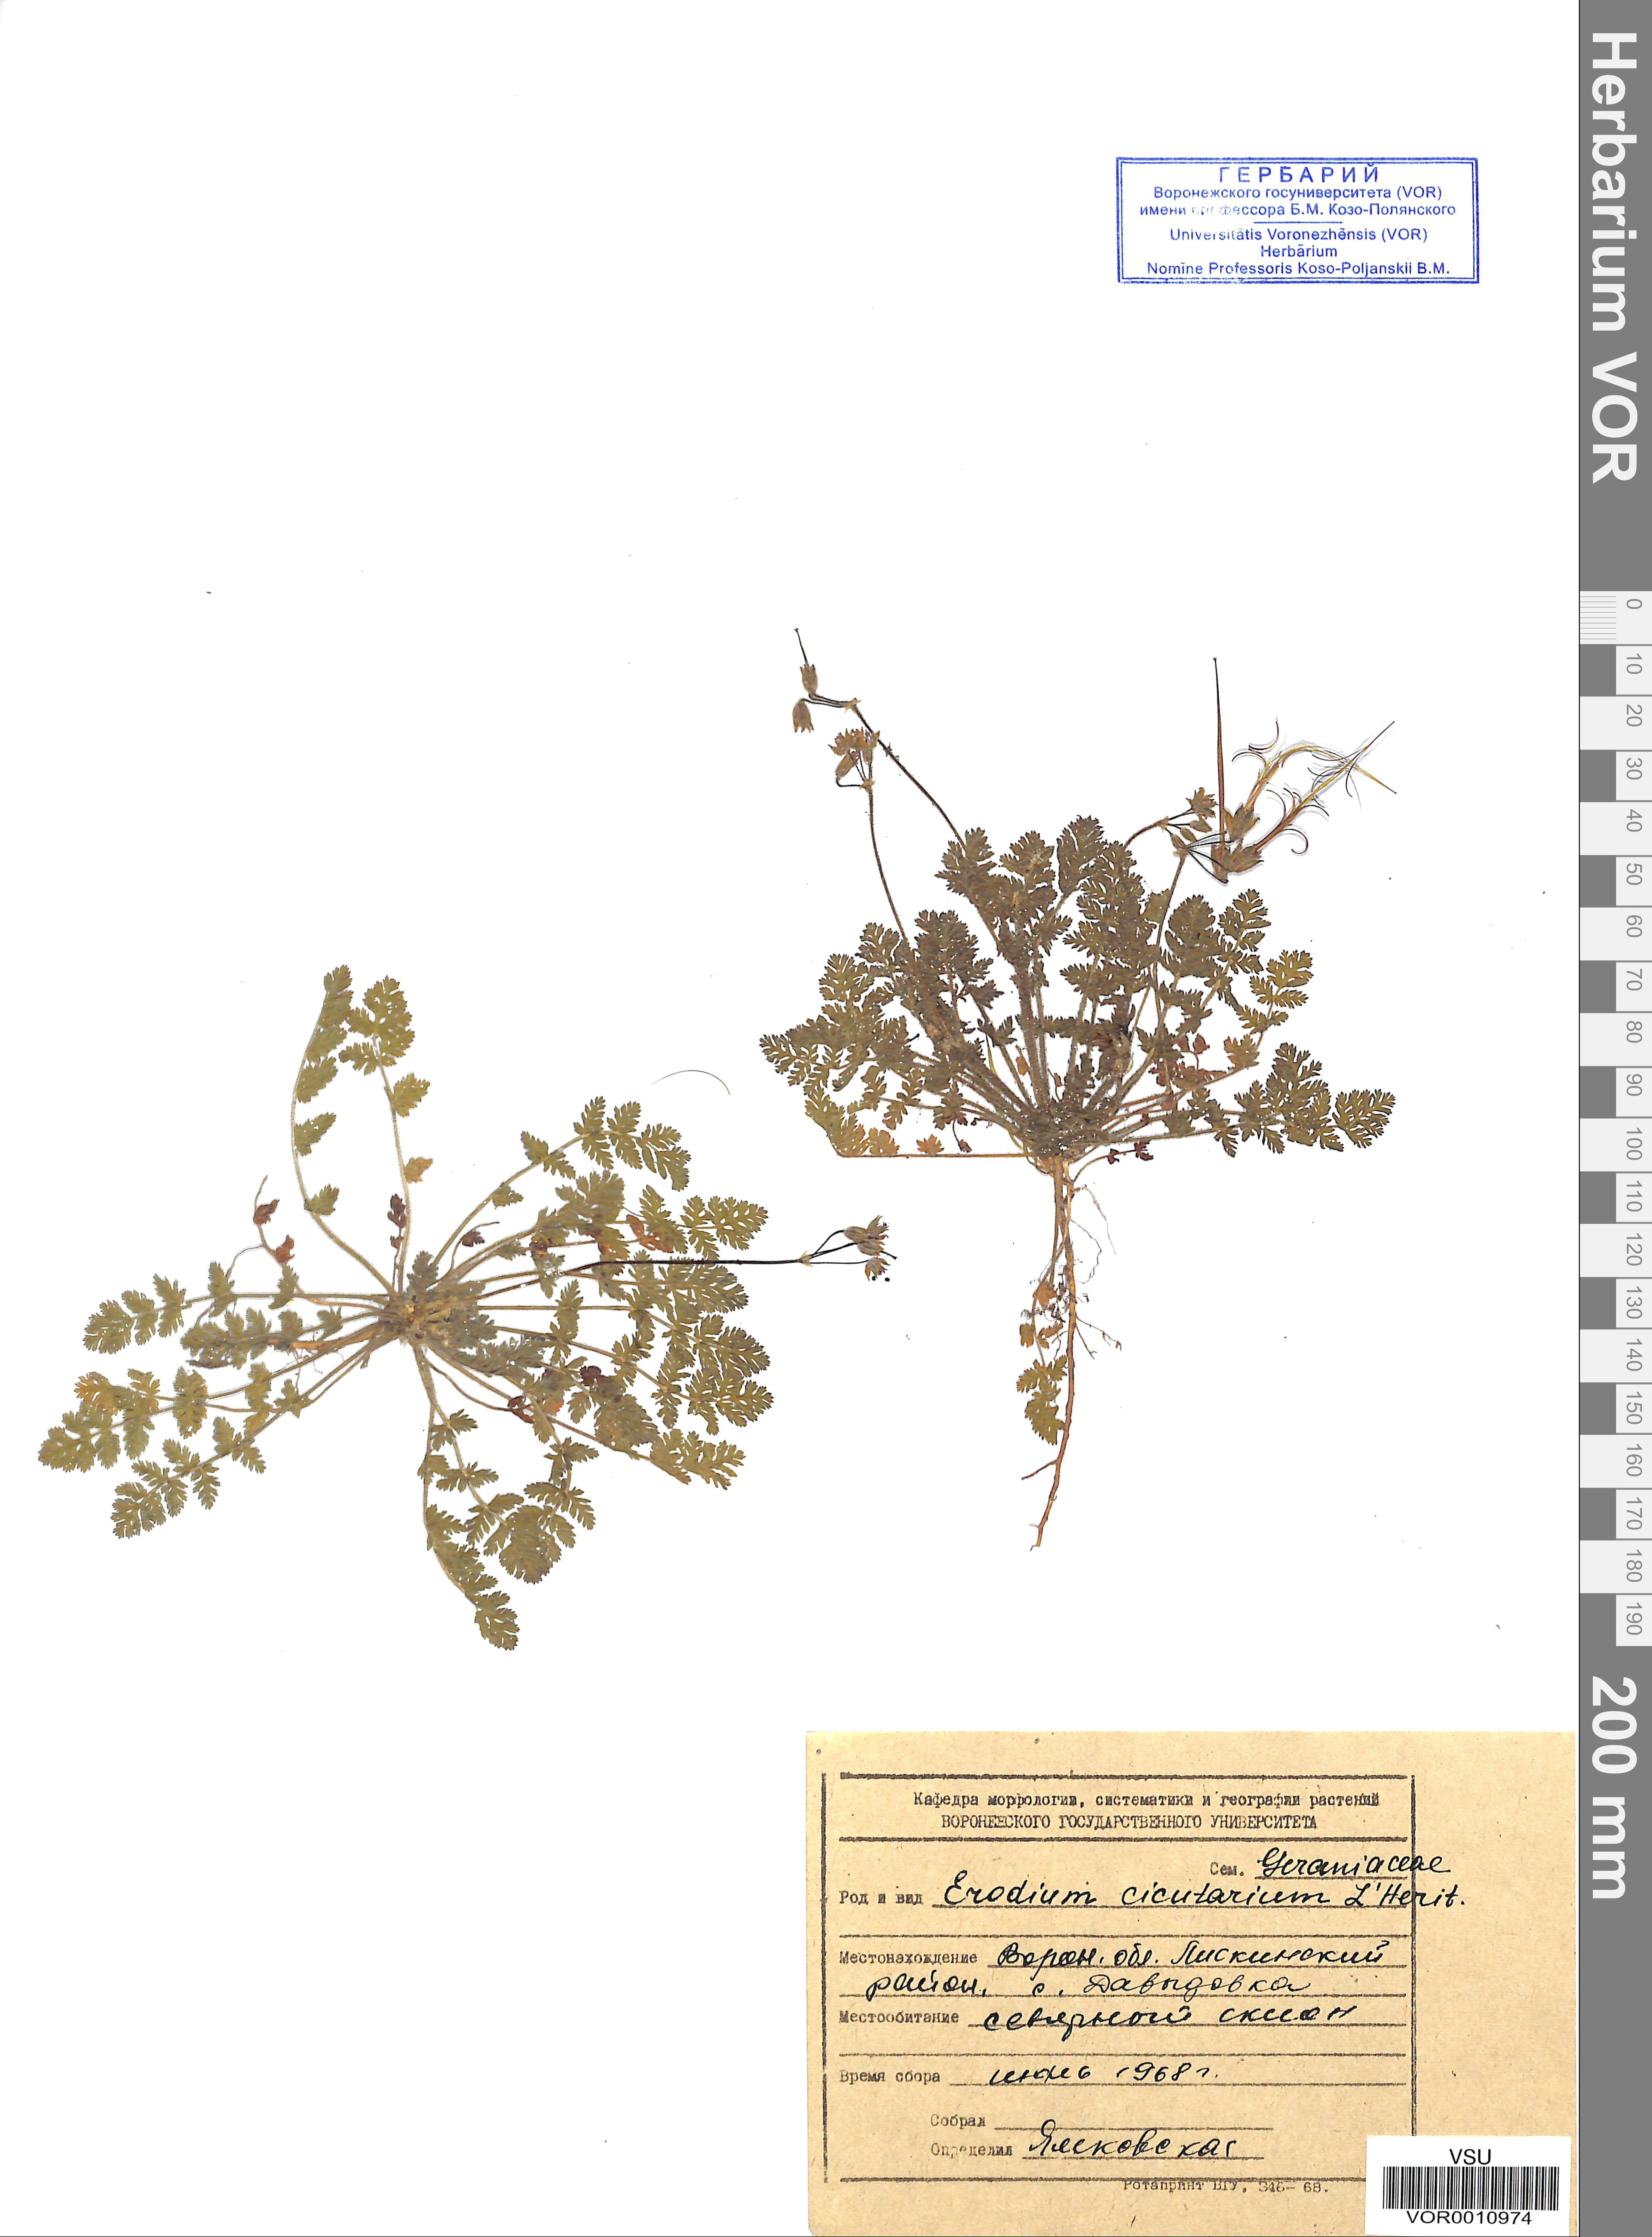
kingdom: Plantae
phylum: Tracheophyta
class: Magnoliopsida
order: Geraniales
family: Geraniaceae
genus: Erodium
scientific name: Erodium cicutarium
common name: Common stork's-bill
